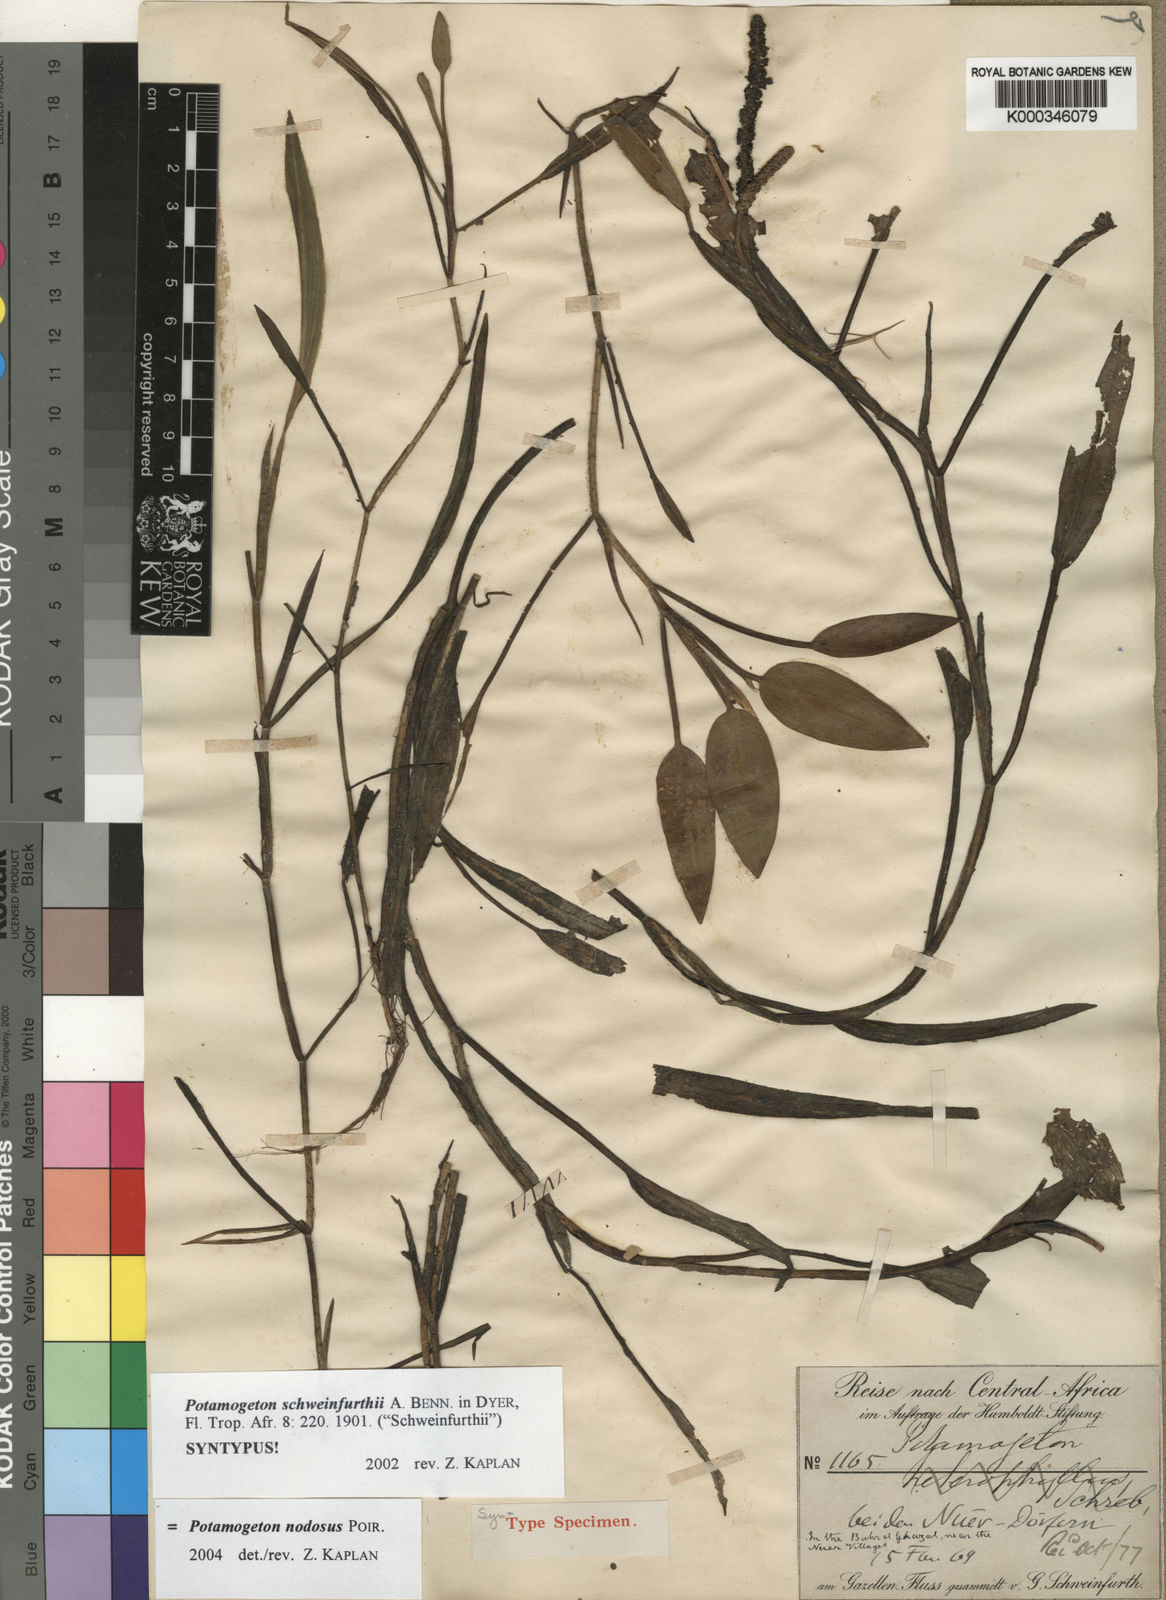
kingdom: Plantae
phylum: Tracheophyta
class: Liliopsida
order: Alismatales
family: Potamogetonaceae
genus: Potamogeton
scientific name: Potamogeton schweinfurthii
